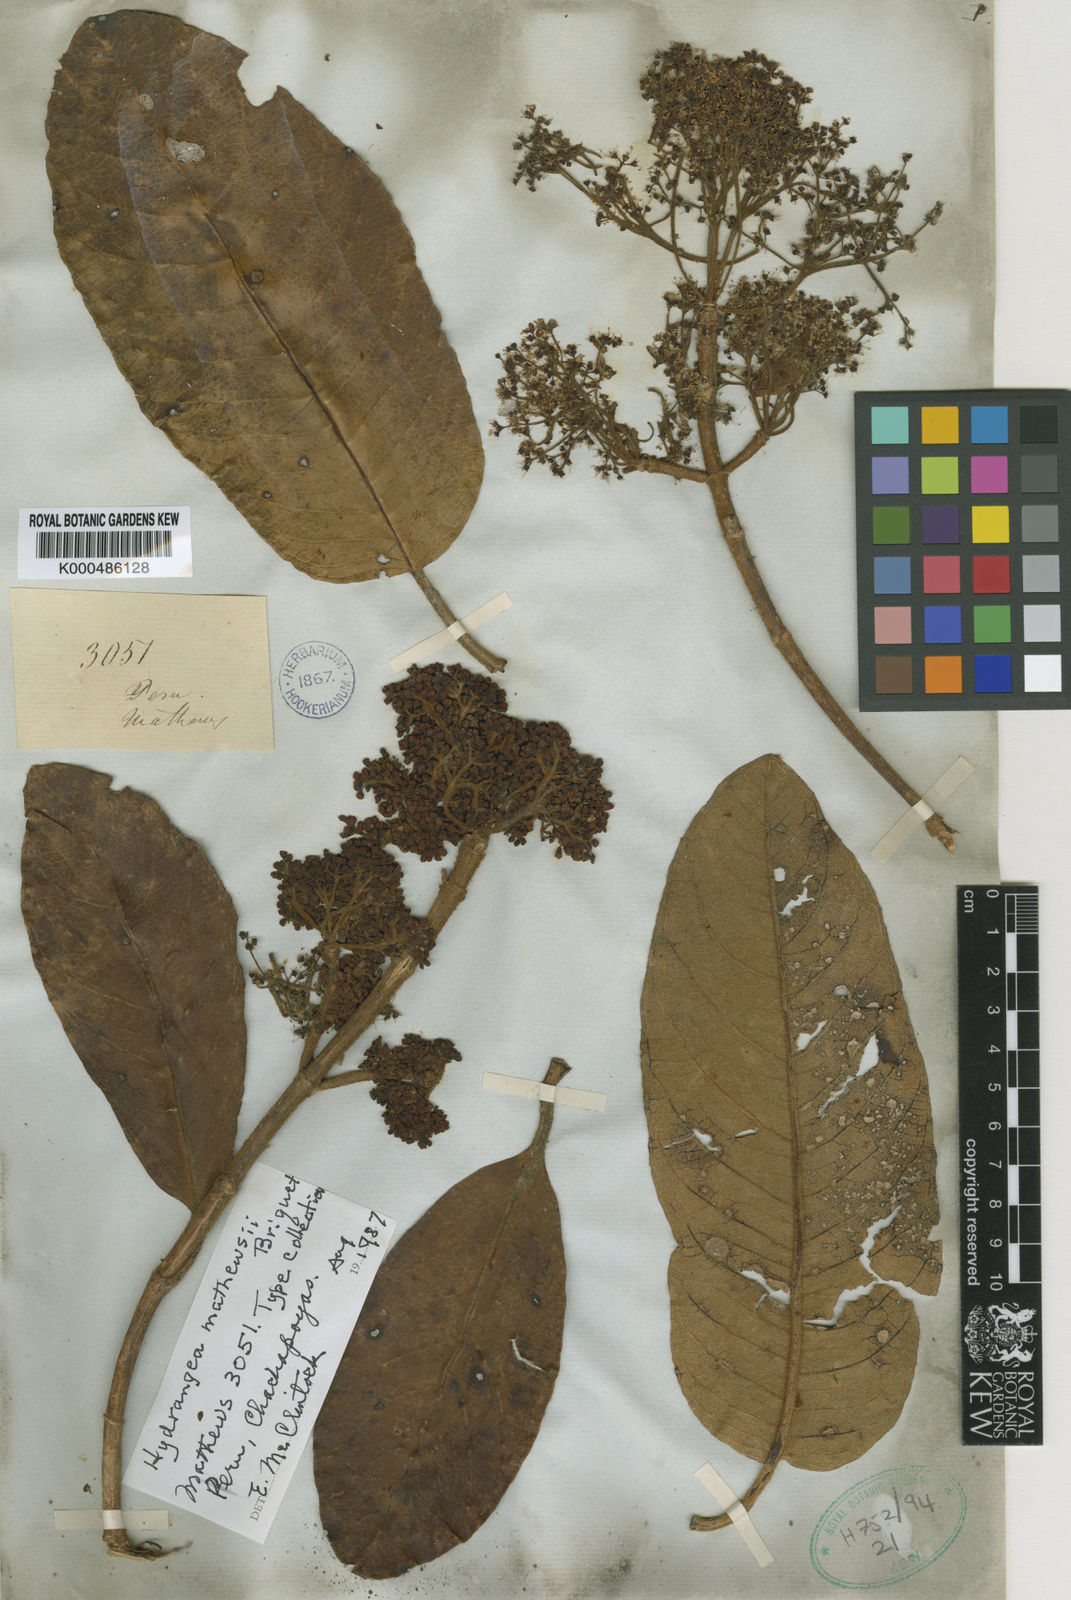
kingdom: Plantae
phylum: Tracheophyta
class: Magnoliopsida
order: Cornales
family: Hydrangeaceae
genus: Hydrangea
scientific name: Hydrangea mathewsii
